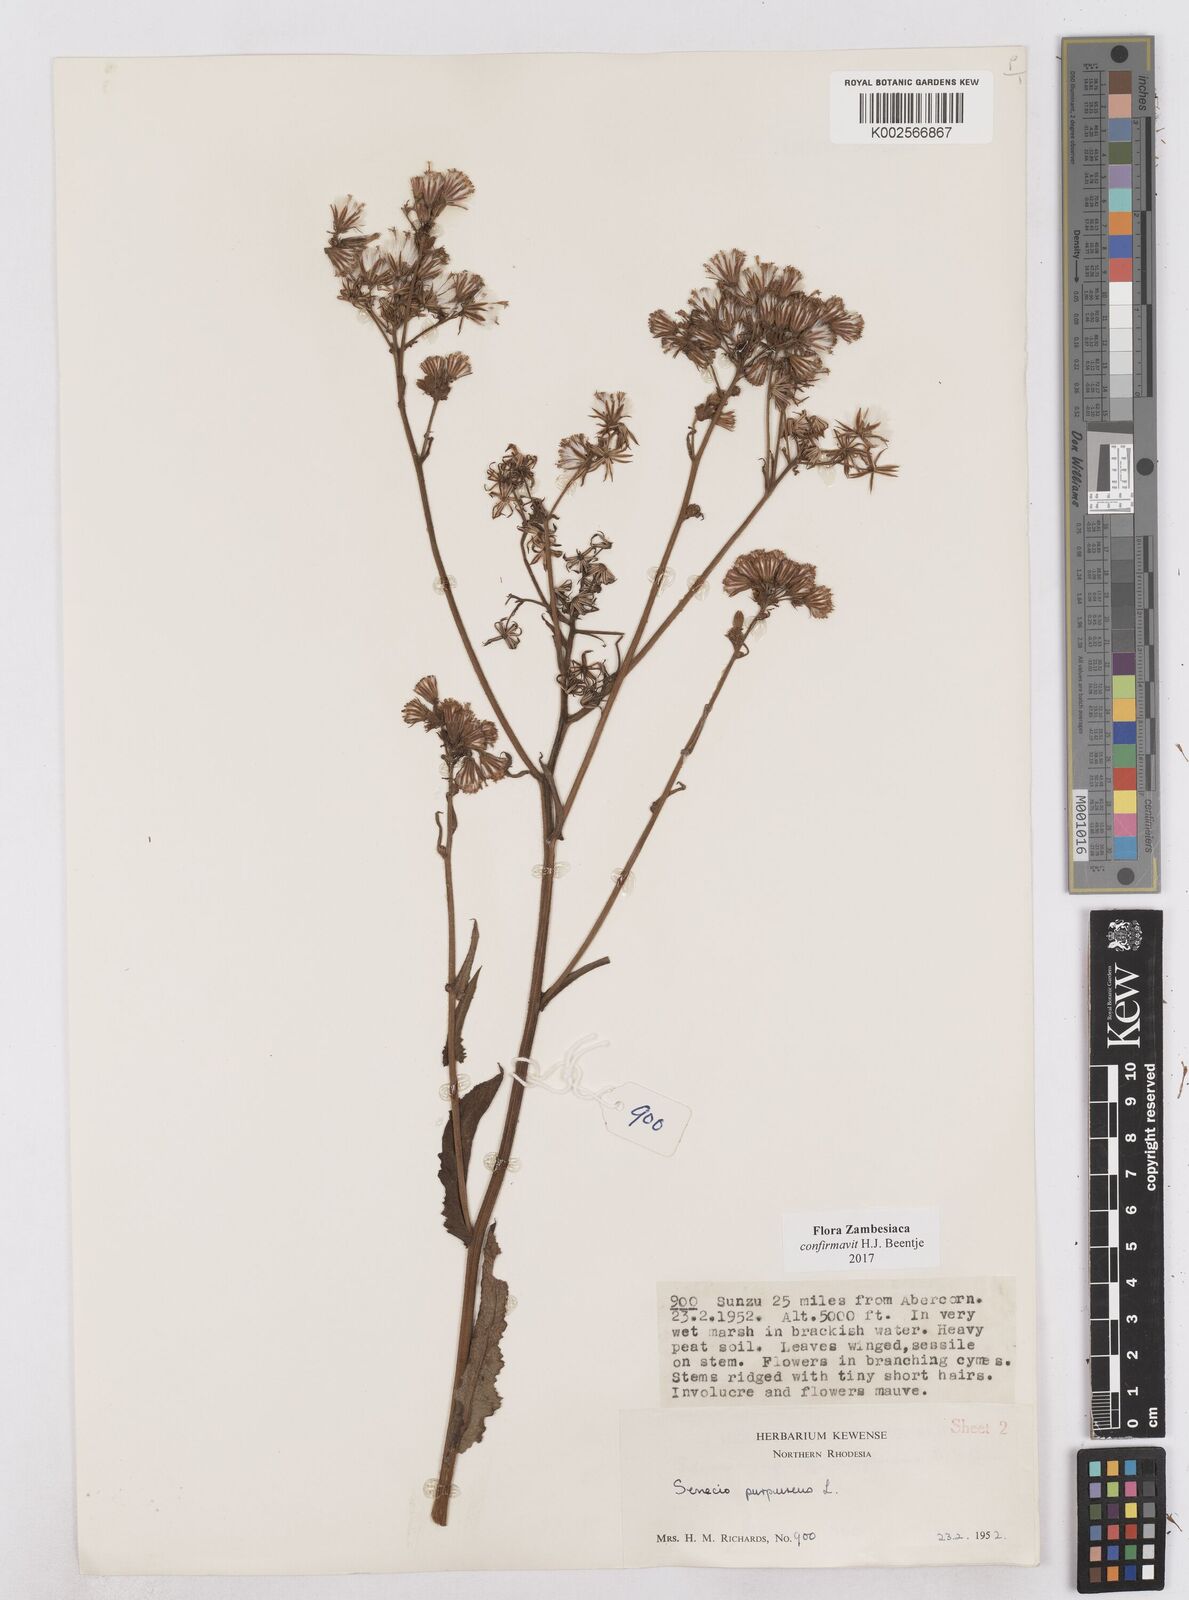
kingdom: Plantae
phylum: Tracheophyta
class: Magnoliopsida
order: Asterales
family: Asteraceae
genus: Senecio
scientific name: Senecio purpureus
